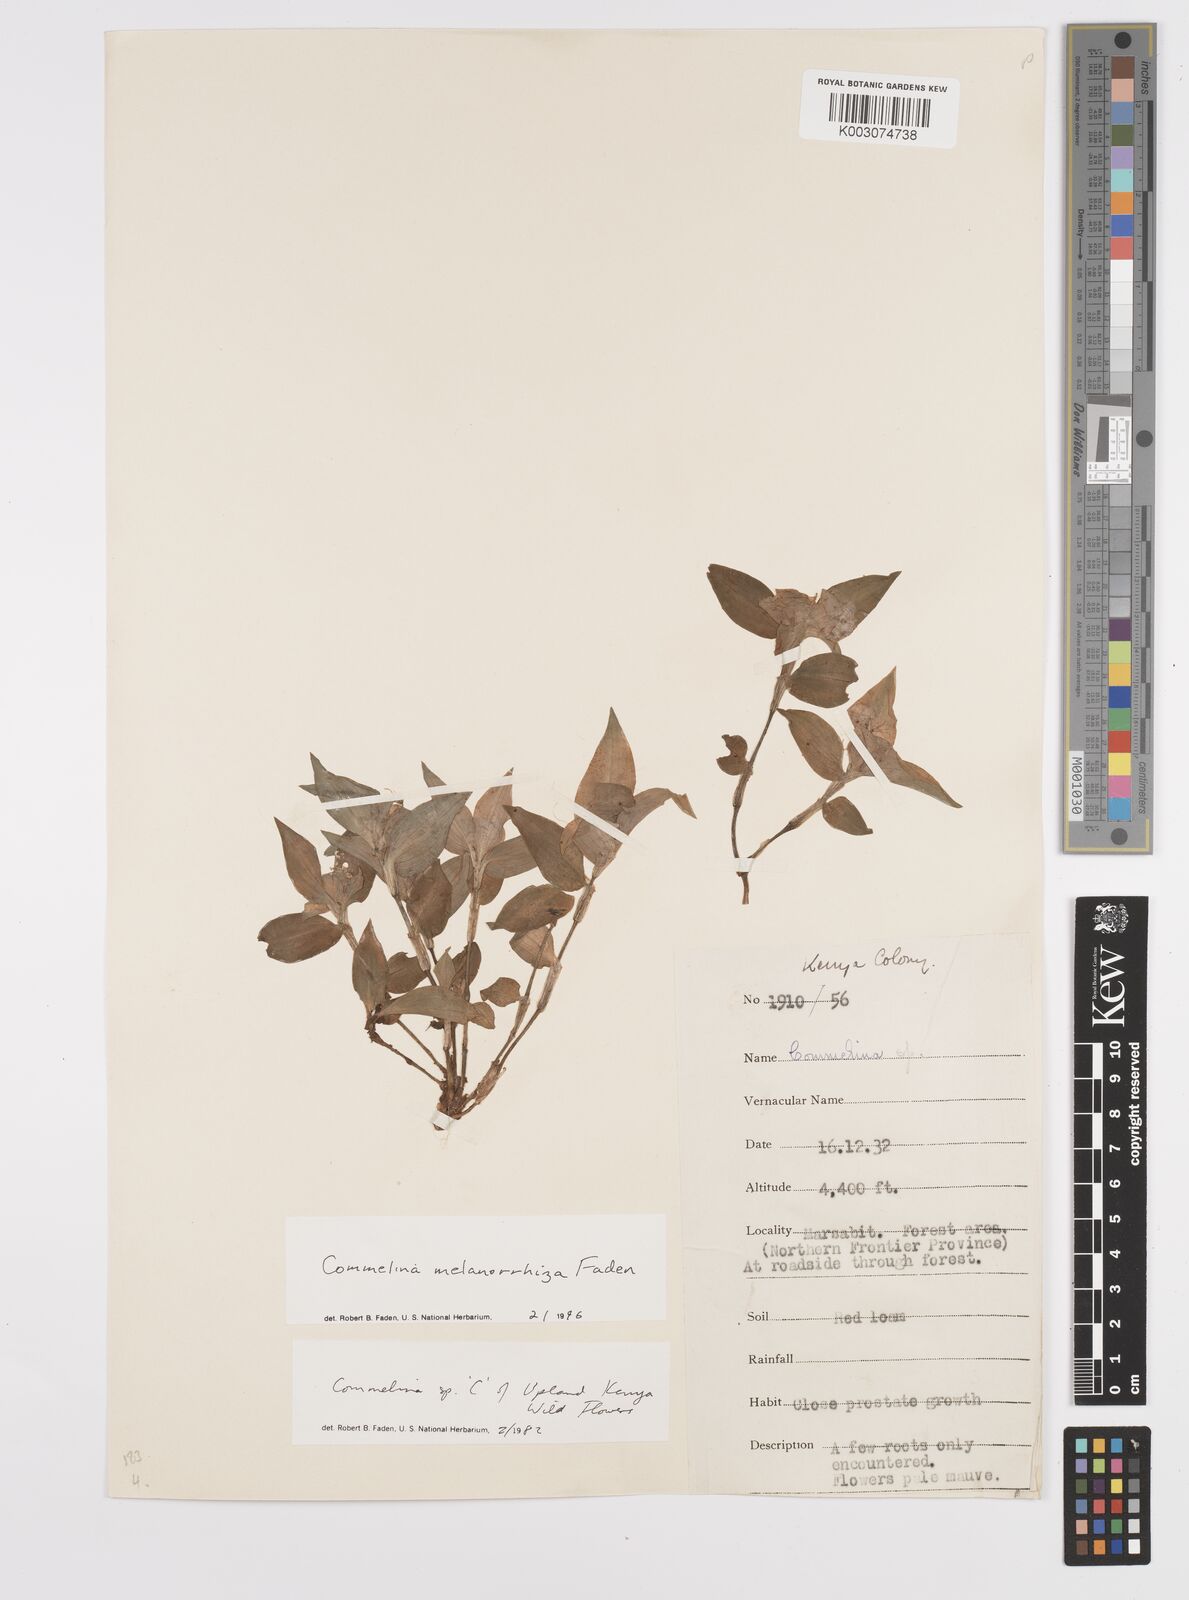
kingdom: Plantae
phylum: Tracheophyta
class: Liliopsida
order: Commelinales
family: Commelinaceae
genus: Commelina
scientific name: Commelina melanorrhiza
